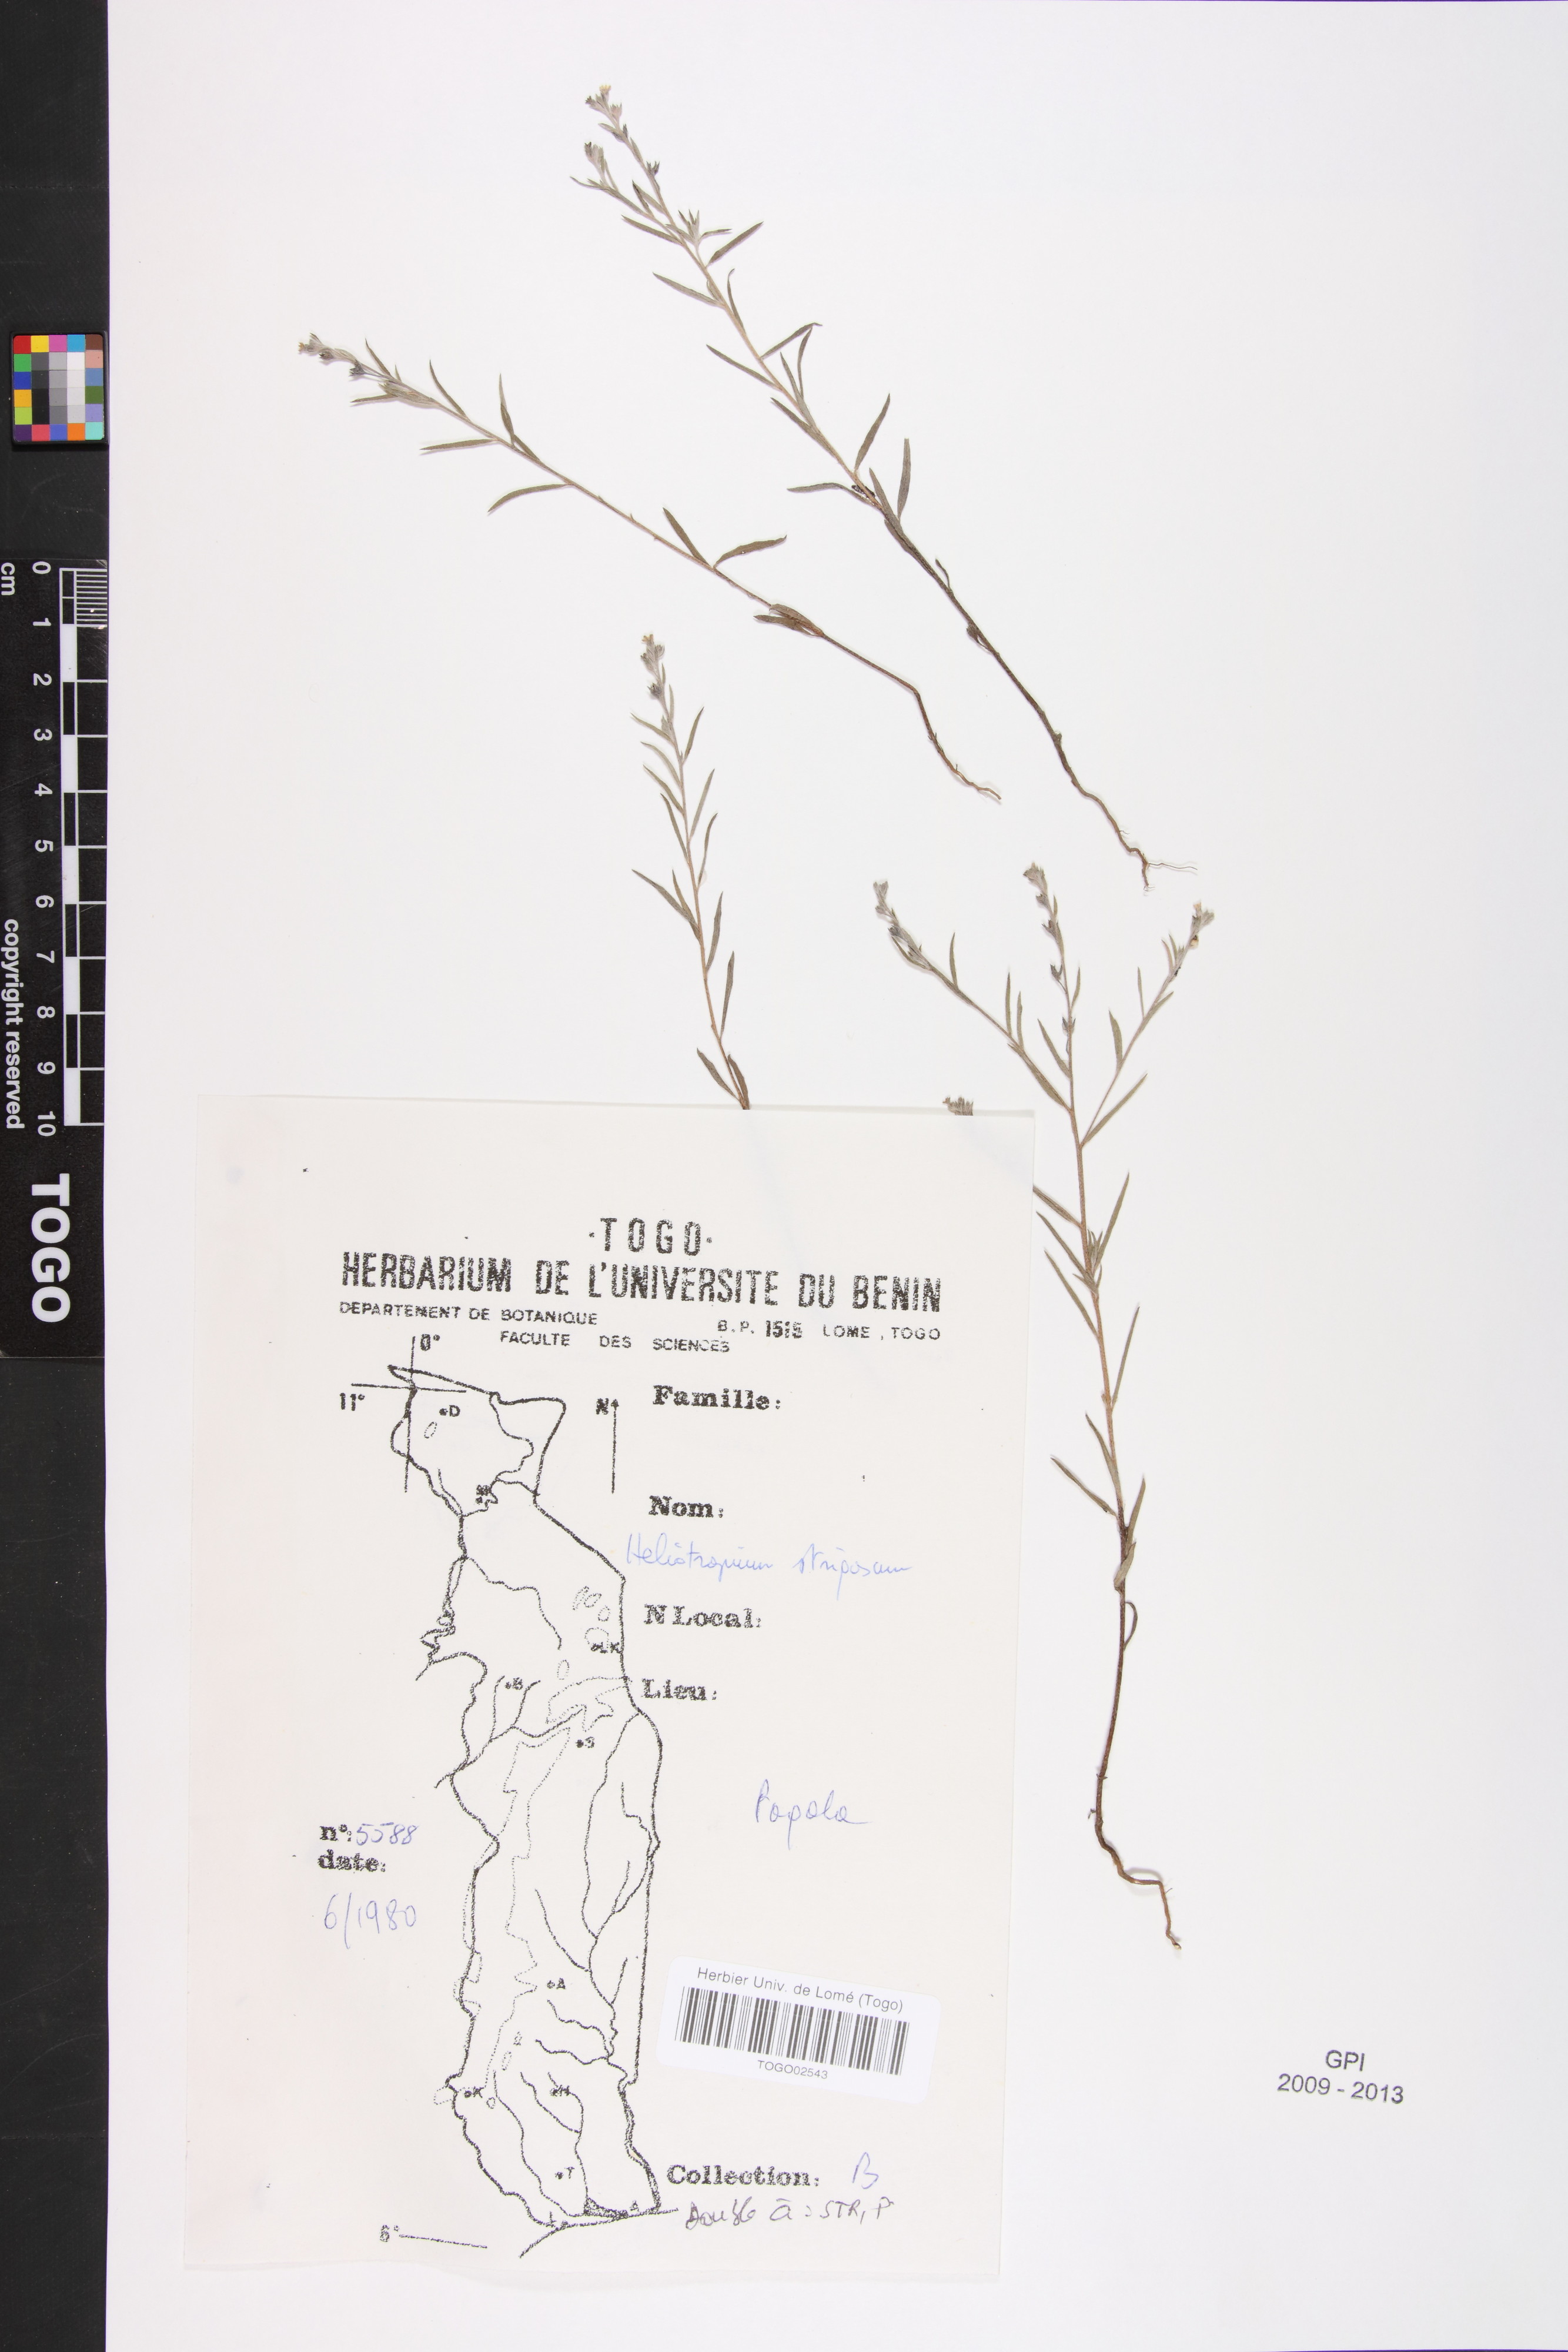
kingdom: Plantae
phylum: Tracheophyta
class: Magnoliopsida
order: Boraginales
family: Heliotropiaceae
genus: Euploca
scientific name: Euploca strigosa
